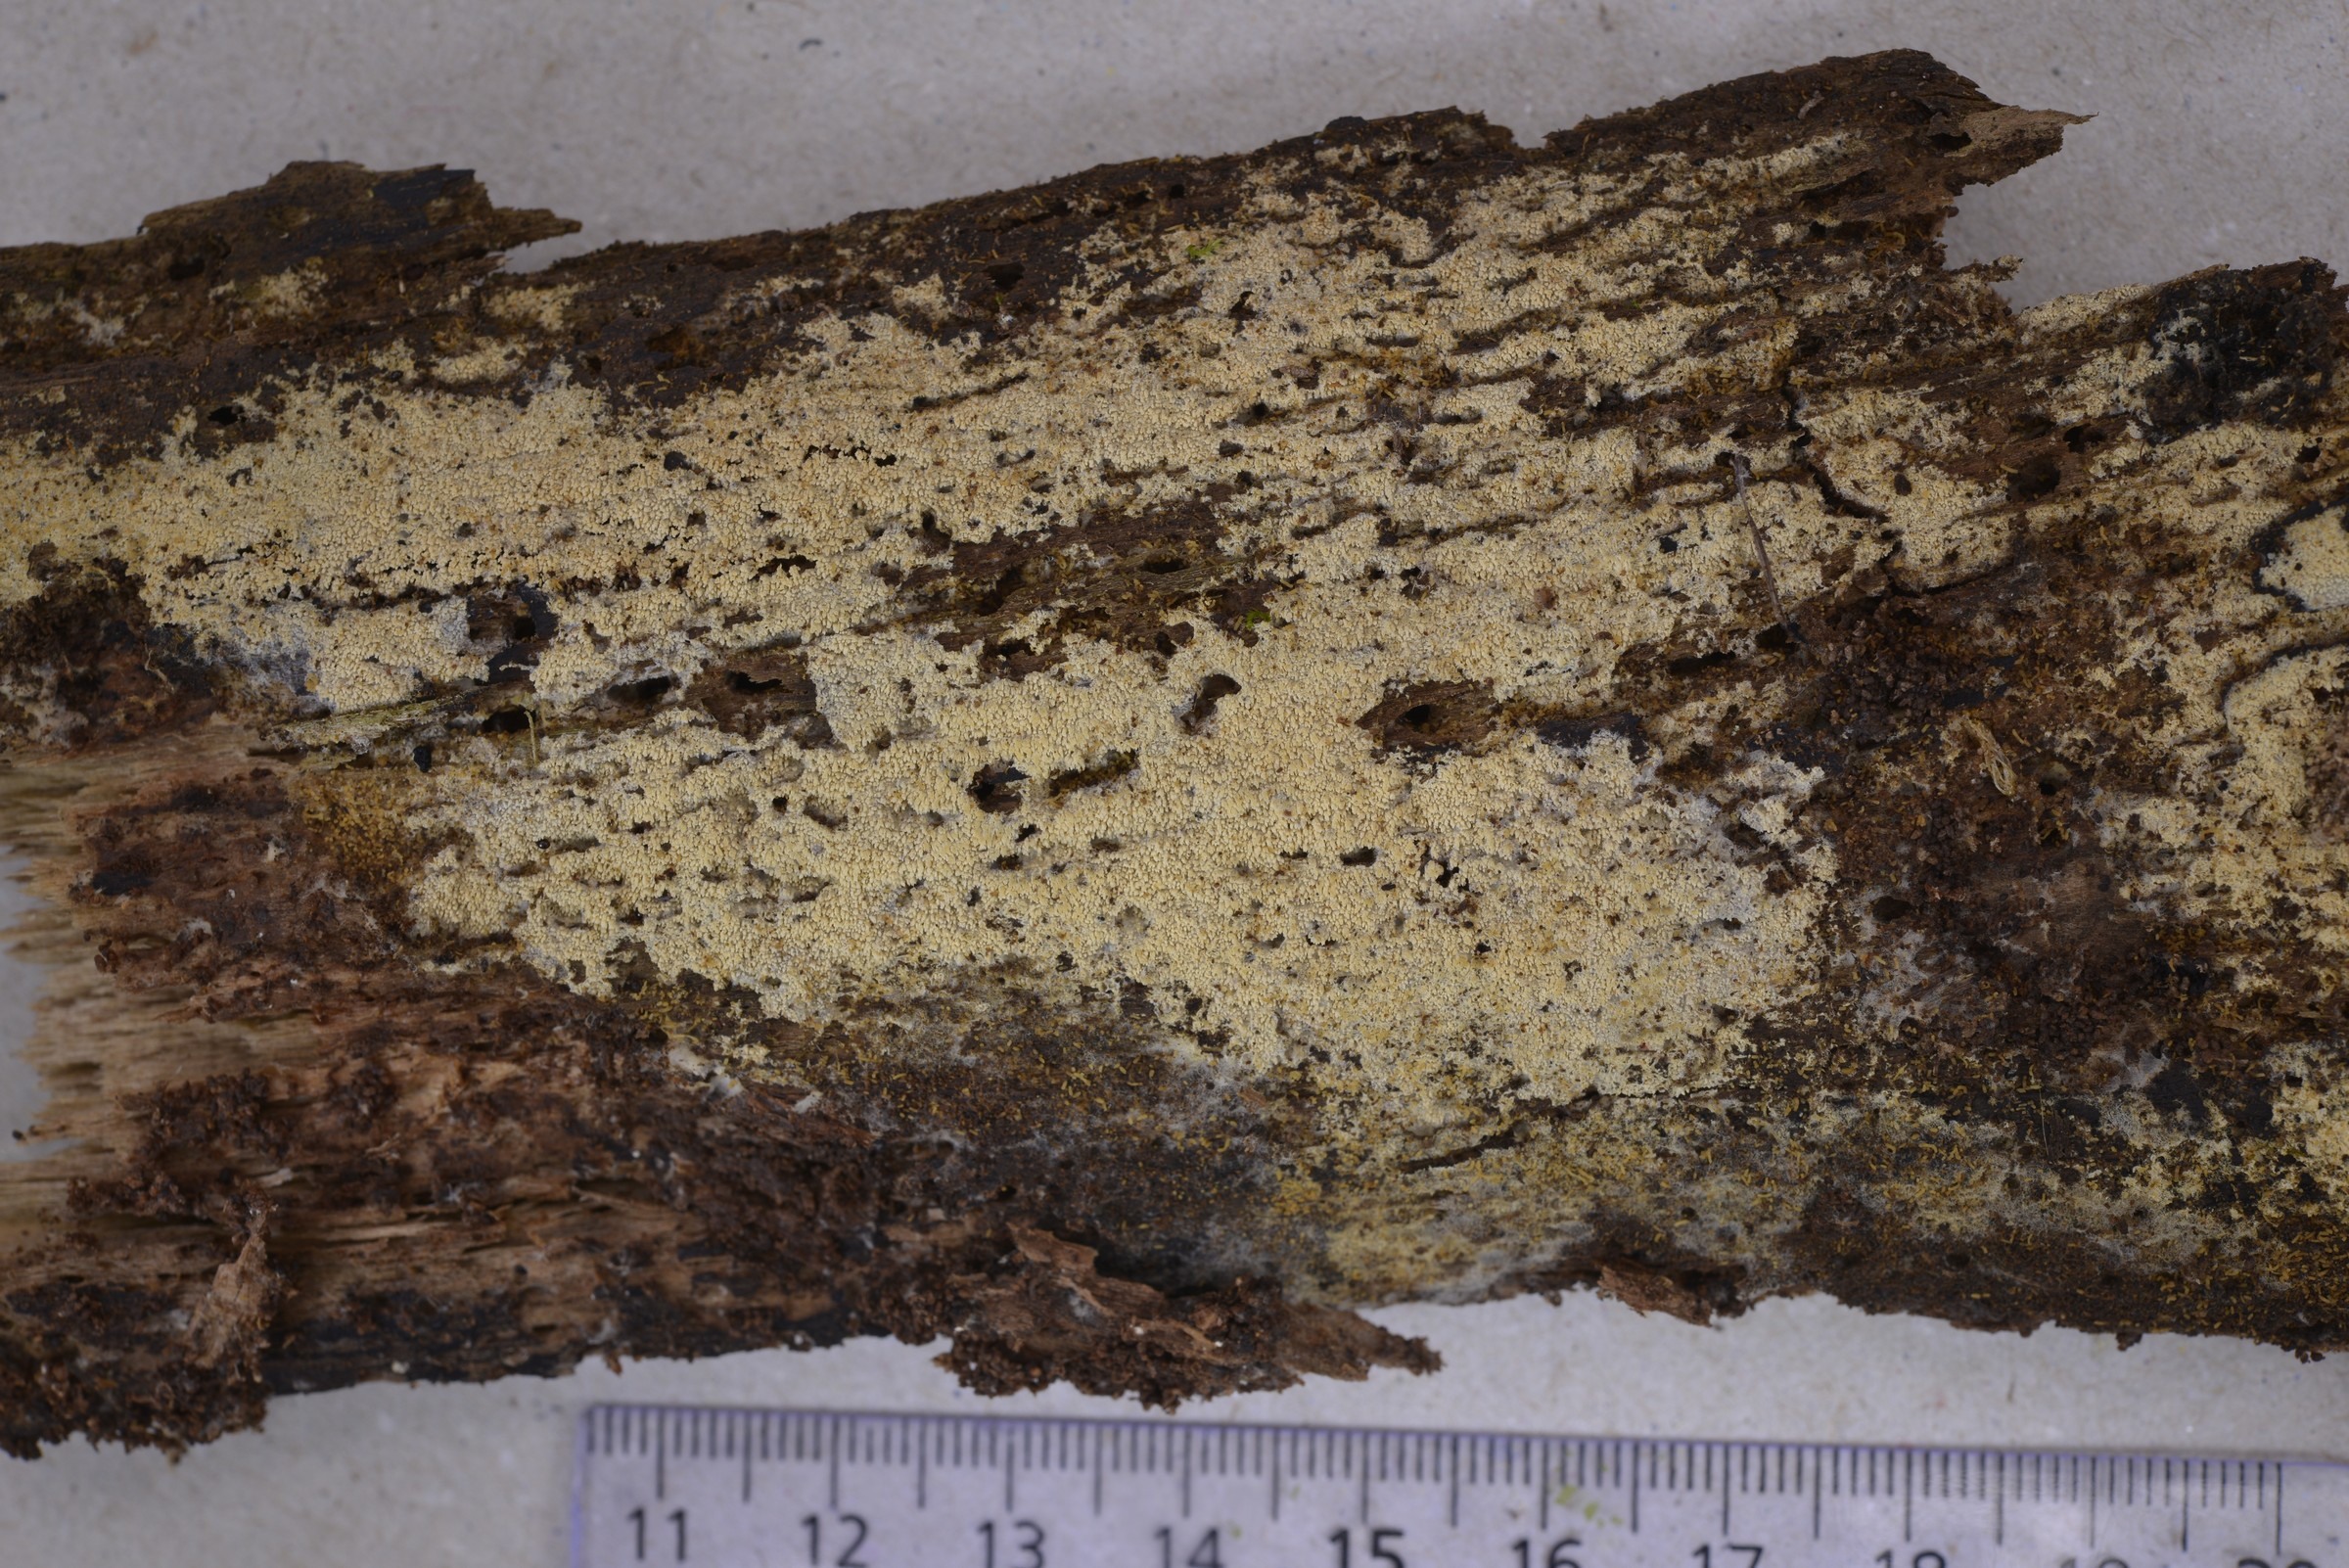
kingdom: Fungi
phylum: Basidiomycota
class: Agaricomycetes
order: Hymenochaetales
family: Schizoporaceae
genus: Alutaceodontia
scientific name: Alutaceodontia alutacea
